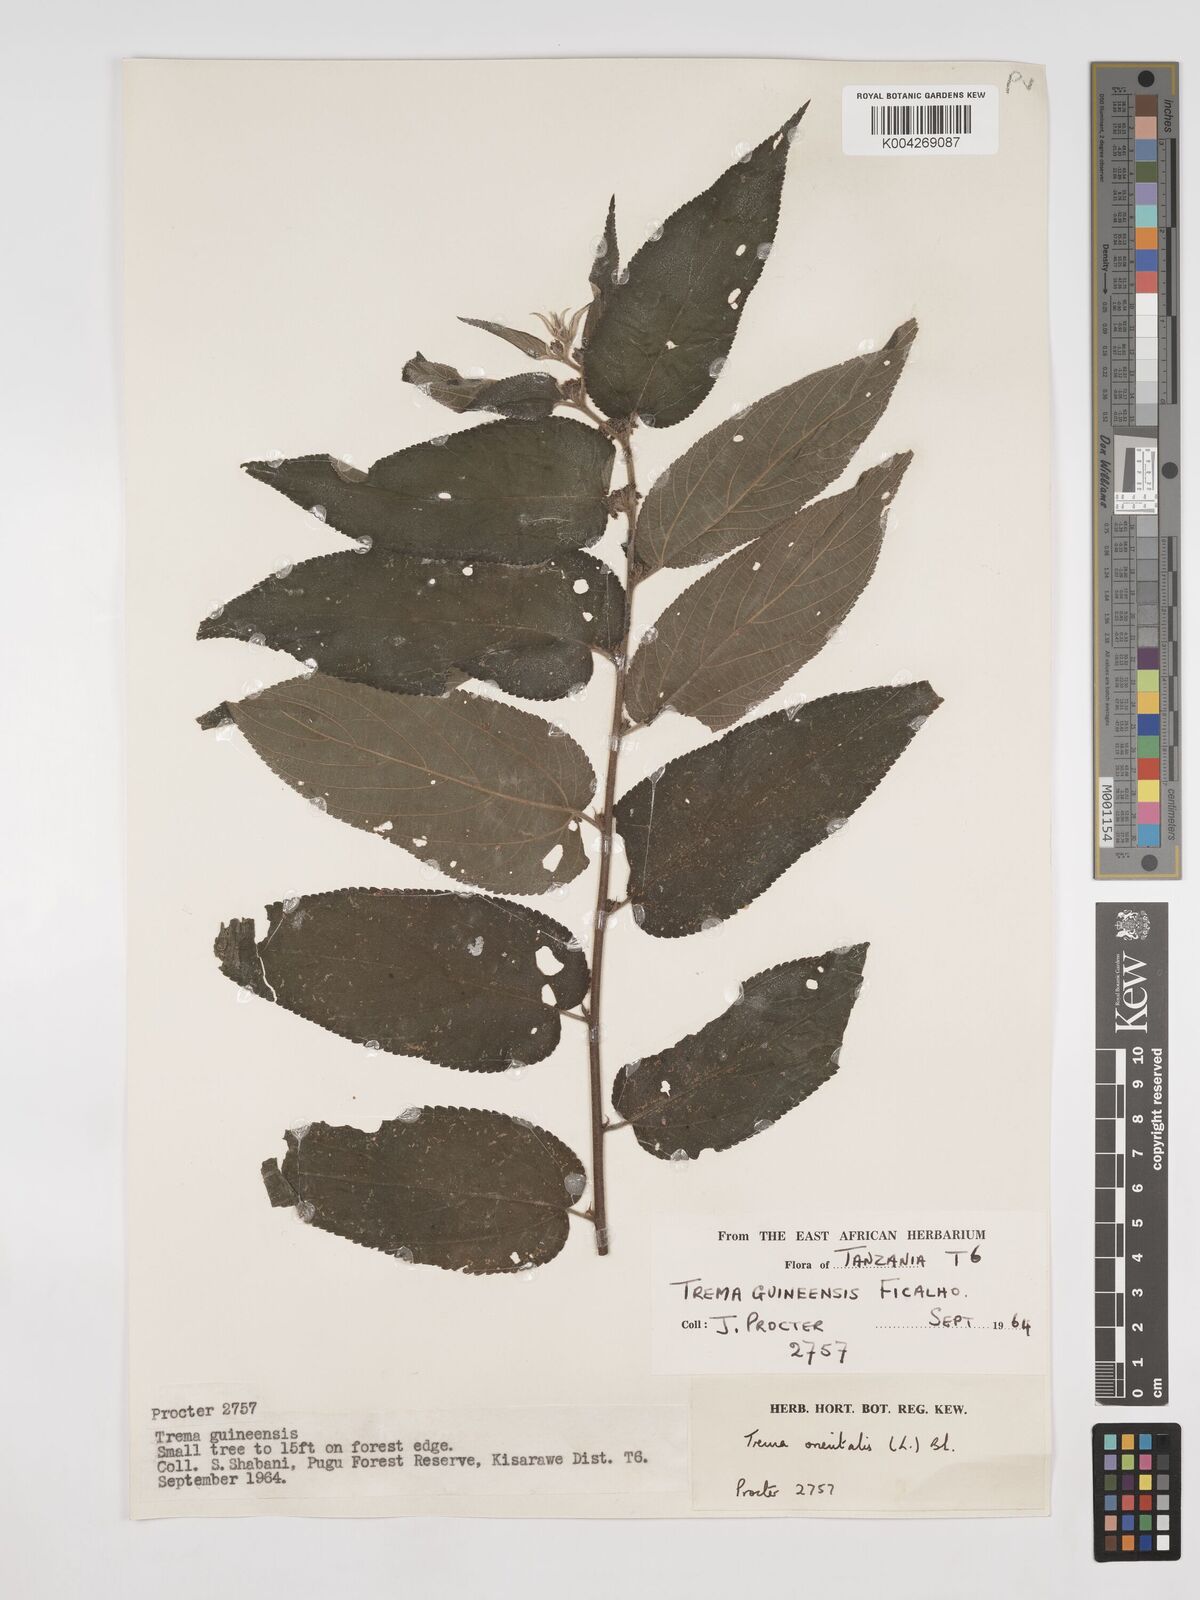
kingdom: Plantae
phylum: Tracheophyta
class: Magnoliopsida
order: Rosales
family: Cannabaceae
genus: Trema
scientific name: Trema orientale
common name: Indian charcoal tree
